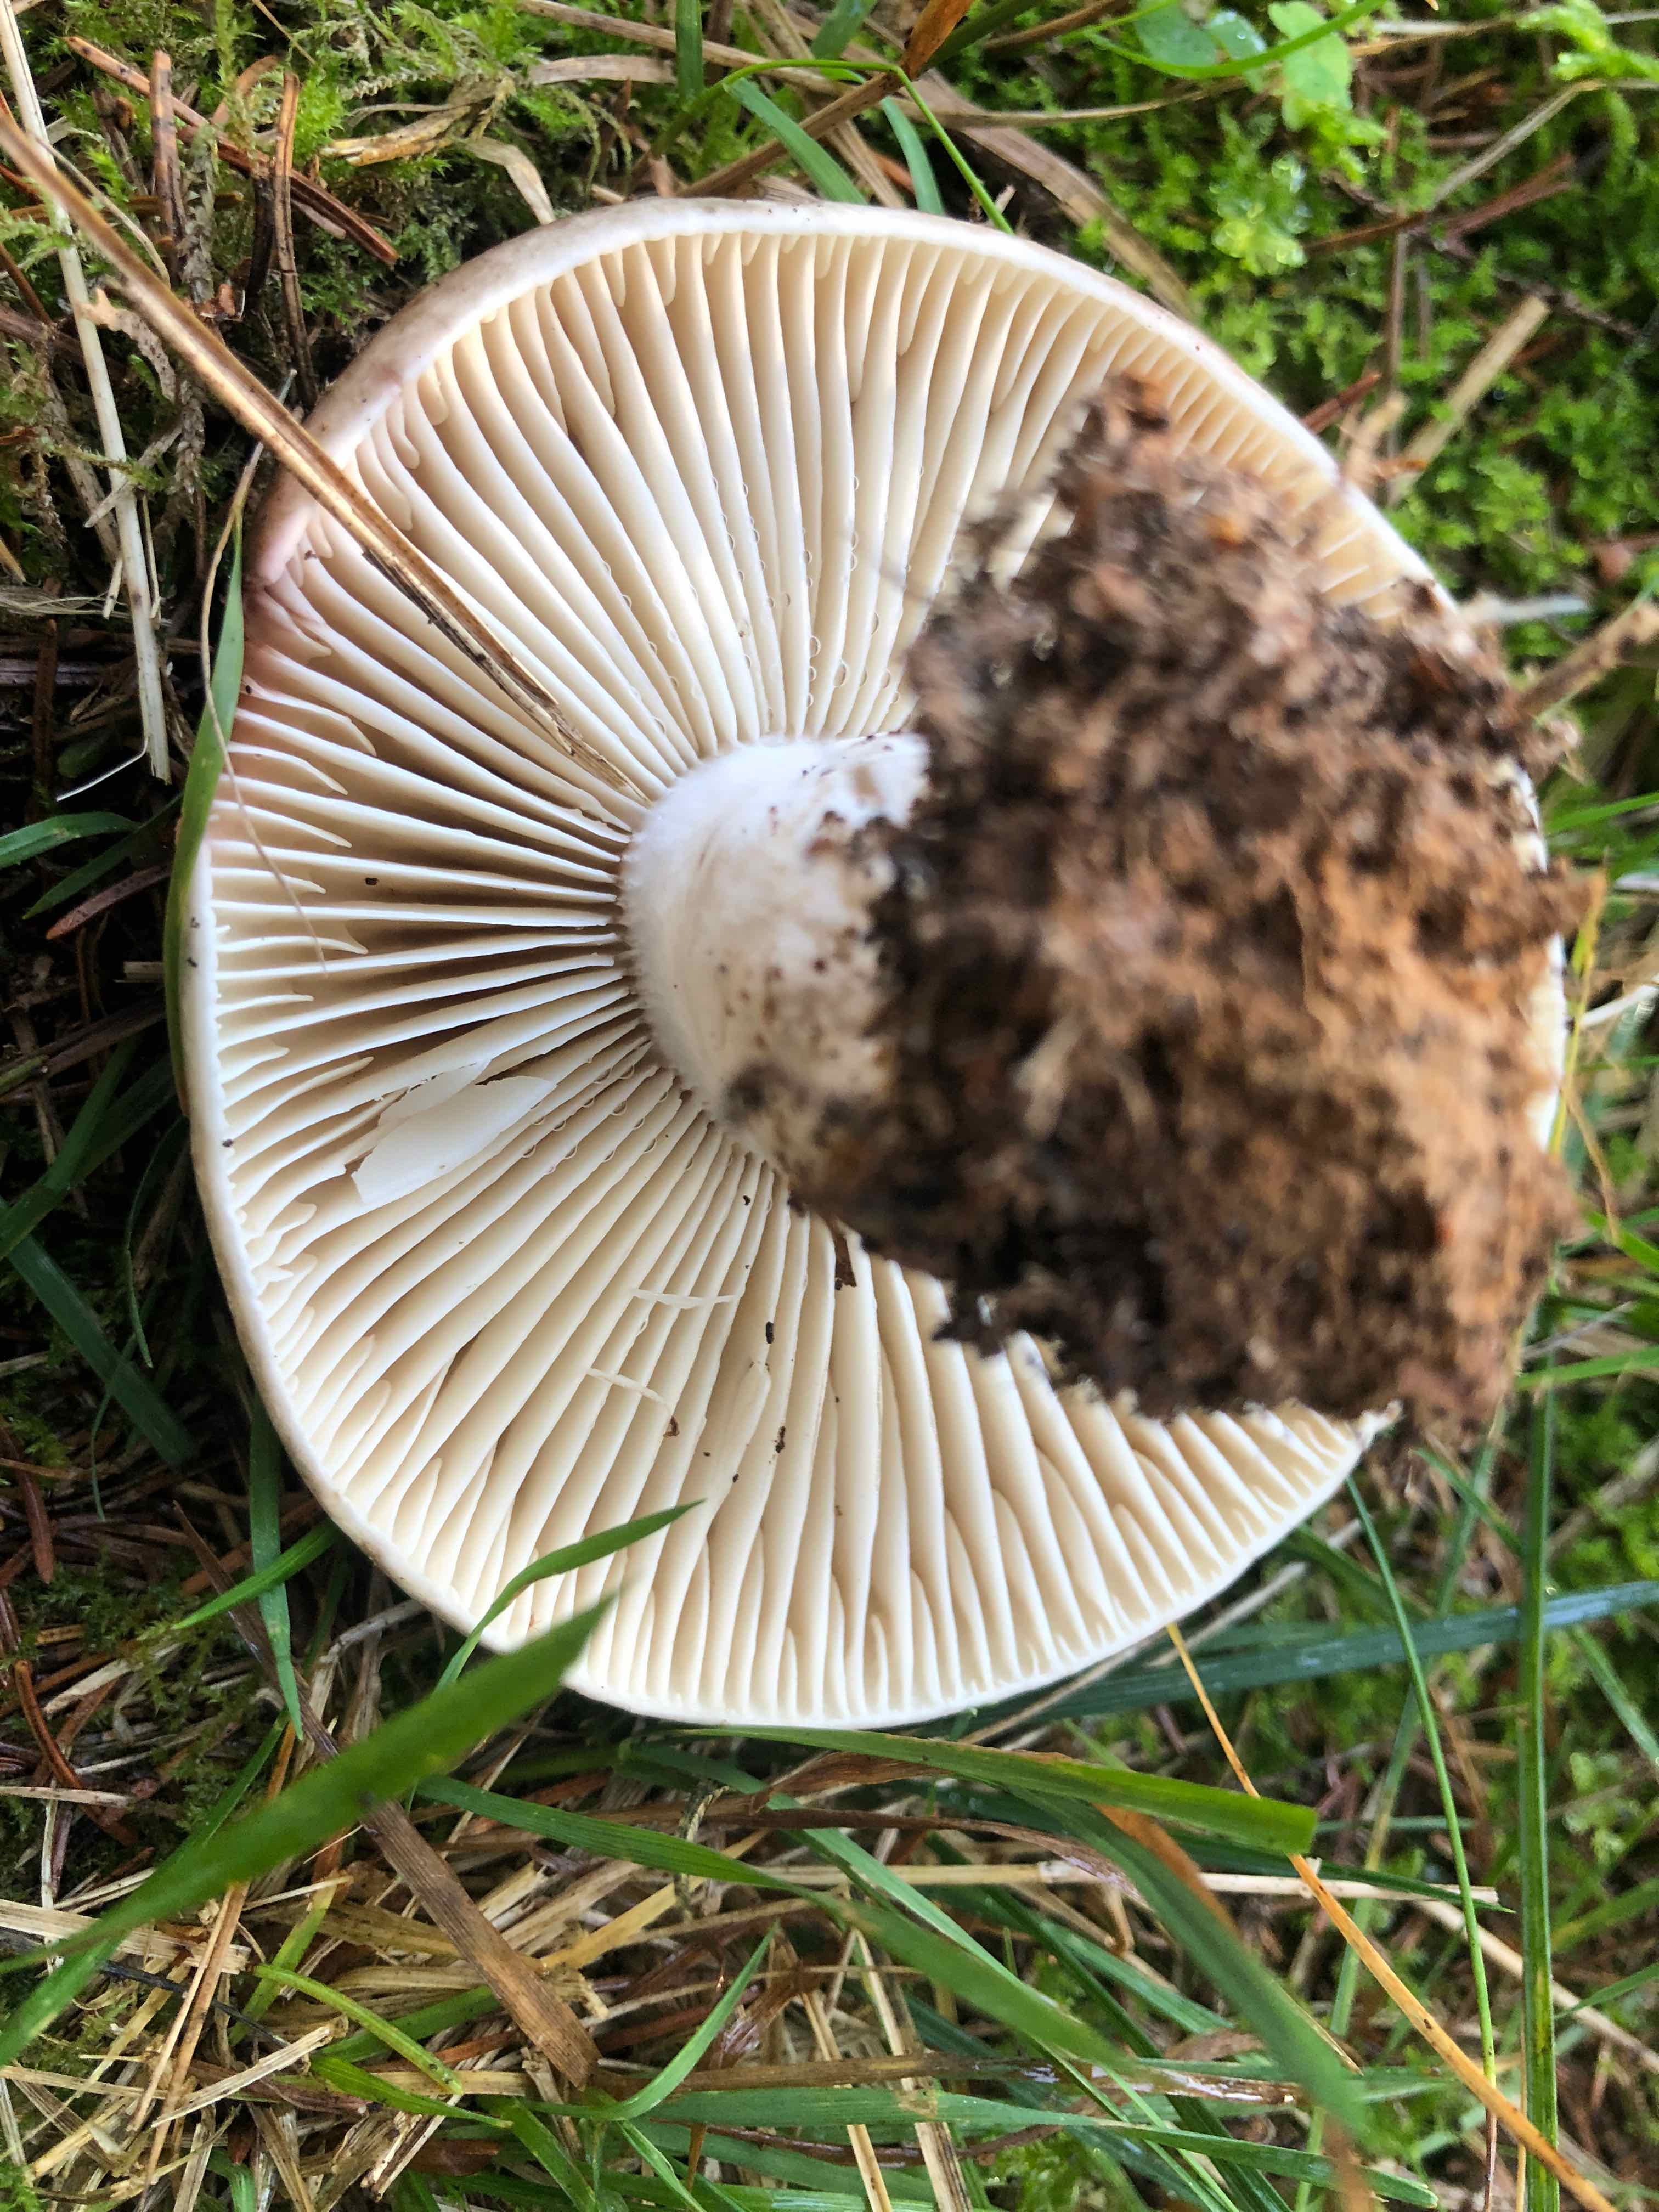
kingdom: Fungi
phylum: Basidiomycota
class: Agaricomycetes
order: Russulales
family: Russulaceae
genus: Russula
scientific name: Russula adusta
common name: sværtende skørhat
